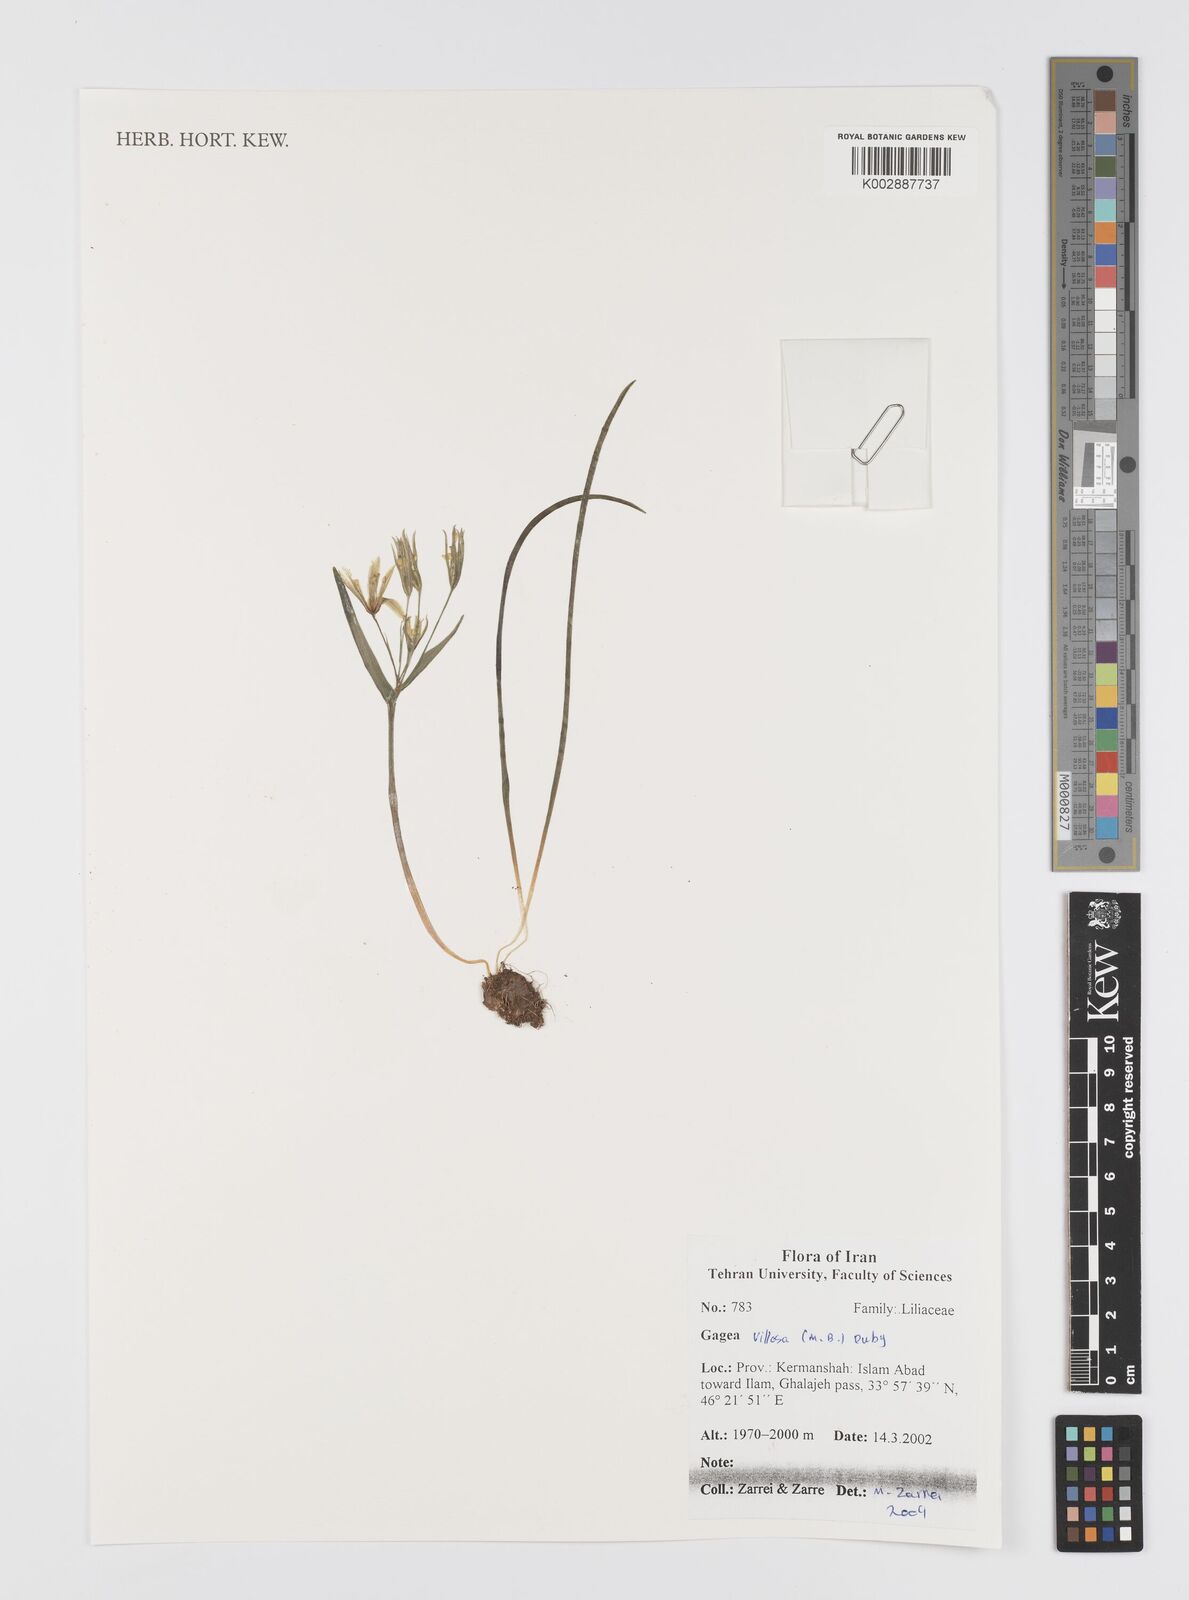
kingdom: Plantae
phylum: Tracheophyta
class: Liliopsida
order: Liliales
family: Liliaceae
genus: Gagea
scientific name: Gagea villosa
